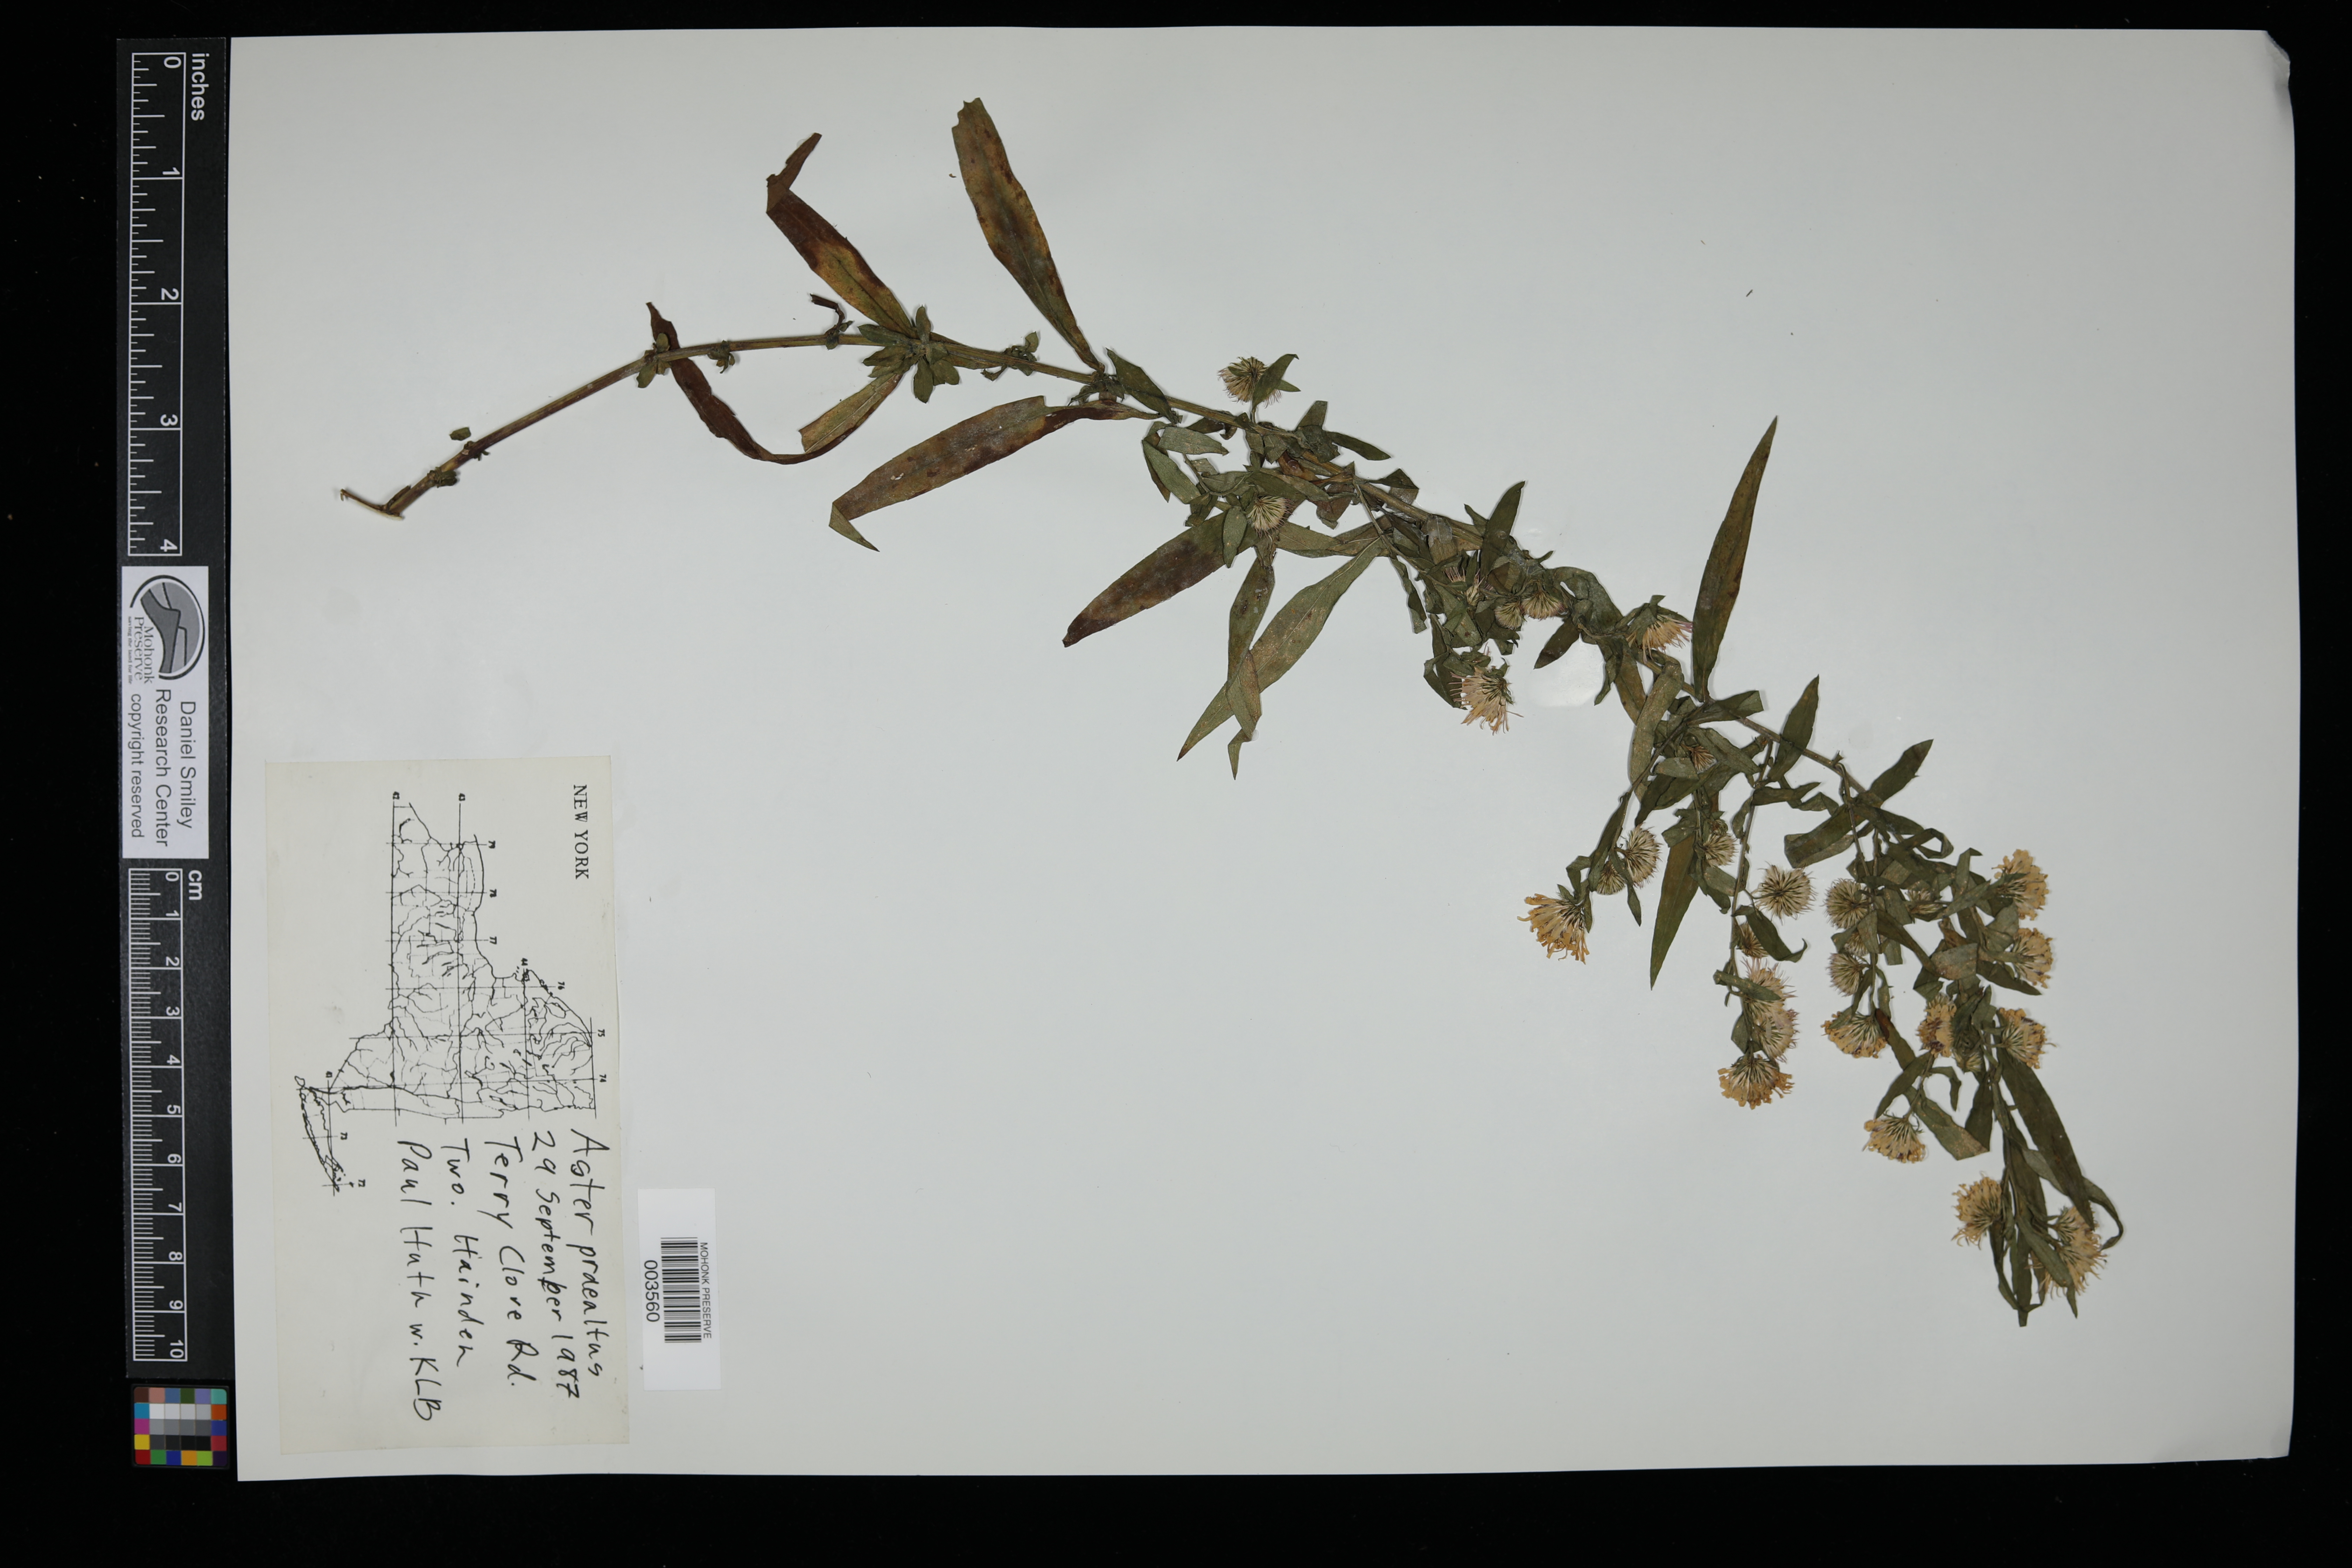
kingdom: Plantae
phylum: Tracheophyta
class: Magnoliopsida
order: Asterales
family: Asteraceae
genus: Symphyotrichum
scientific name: Symphyotrichum praealtum
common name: Willow aster
